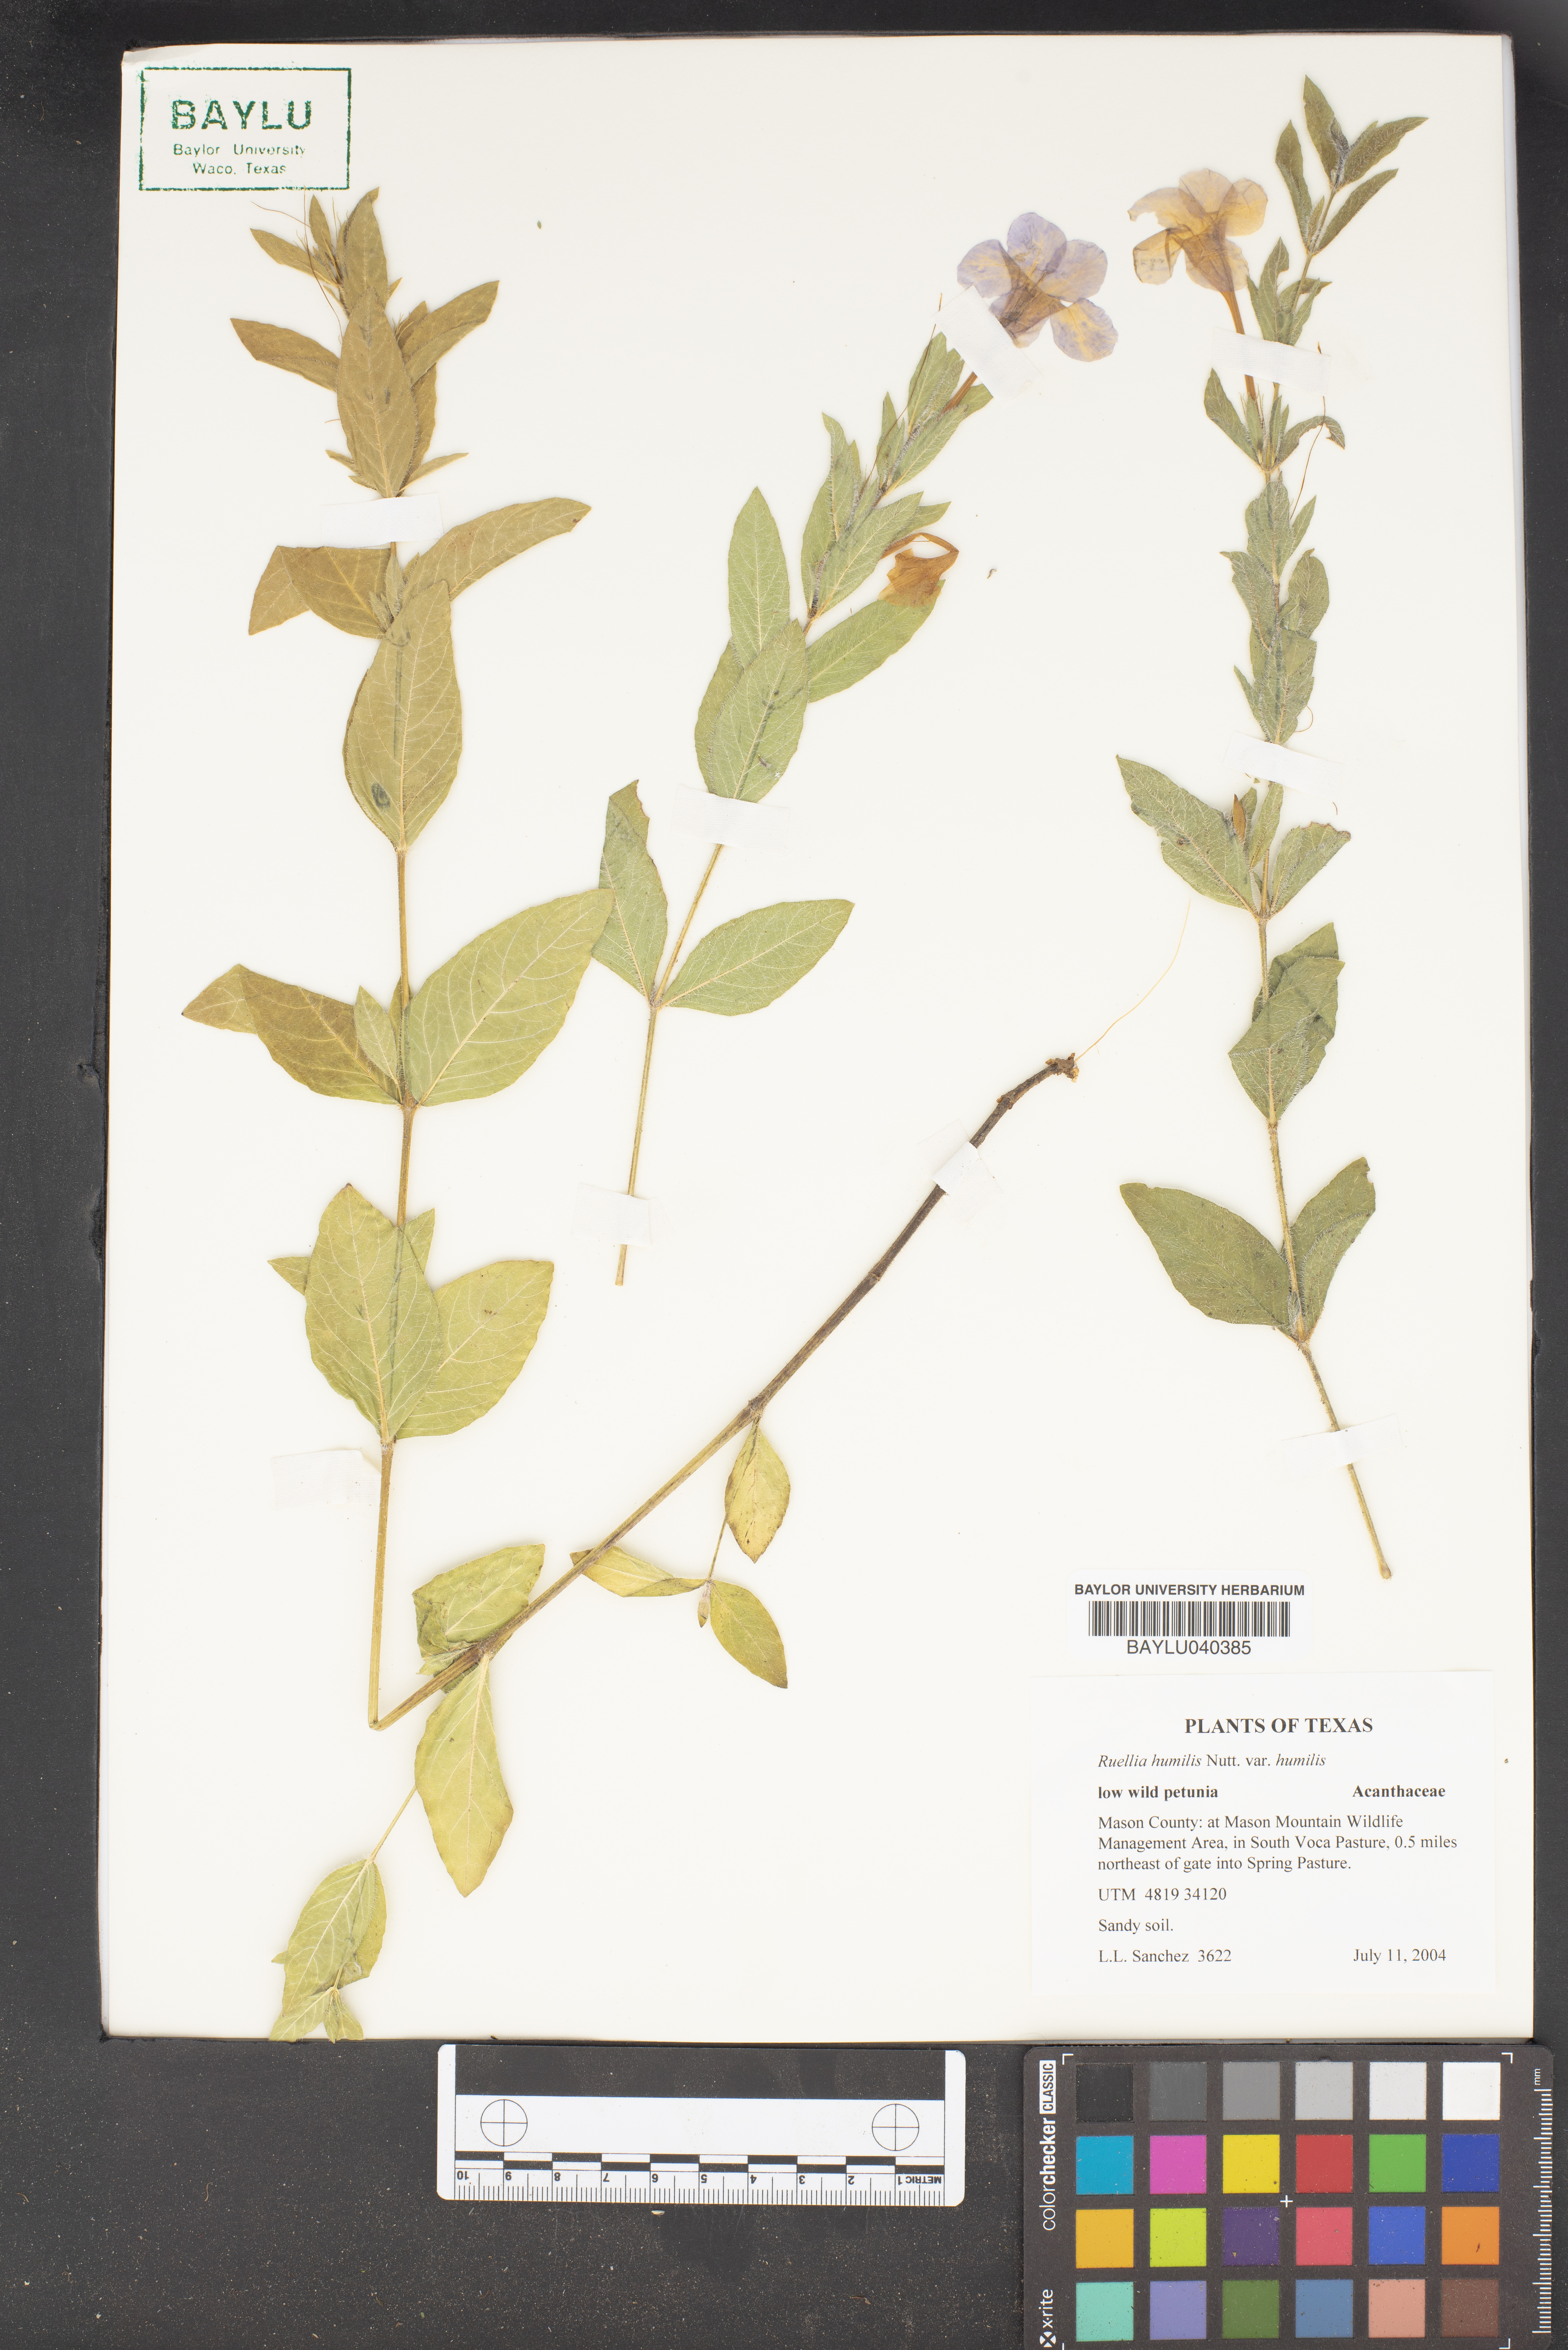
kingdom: Plantae
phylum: Tracheophyta
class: Magnoliopsida
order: Lamiales
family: Acanthaceae
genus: Ruellia
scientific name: Ruellia humilis
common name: Fringe-leaf ruellia
